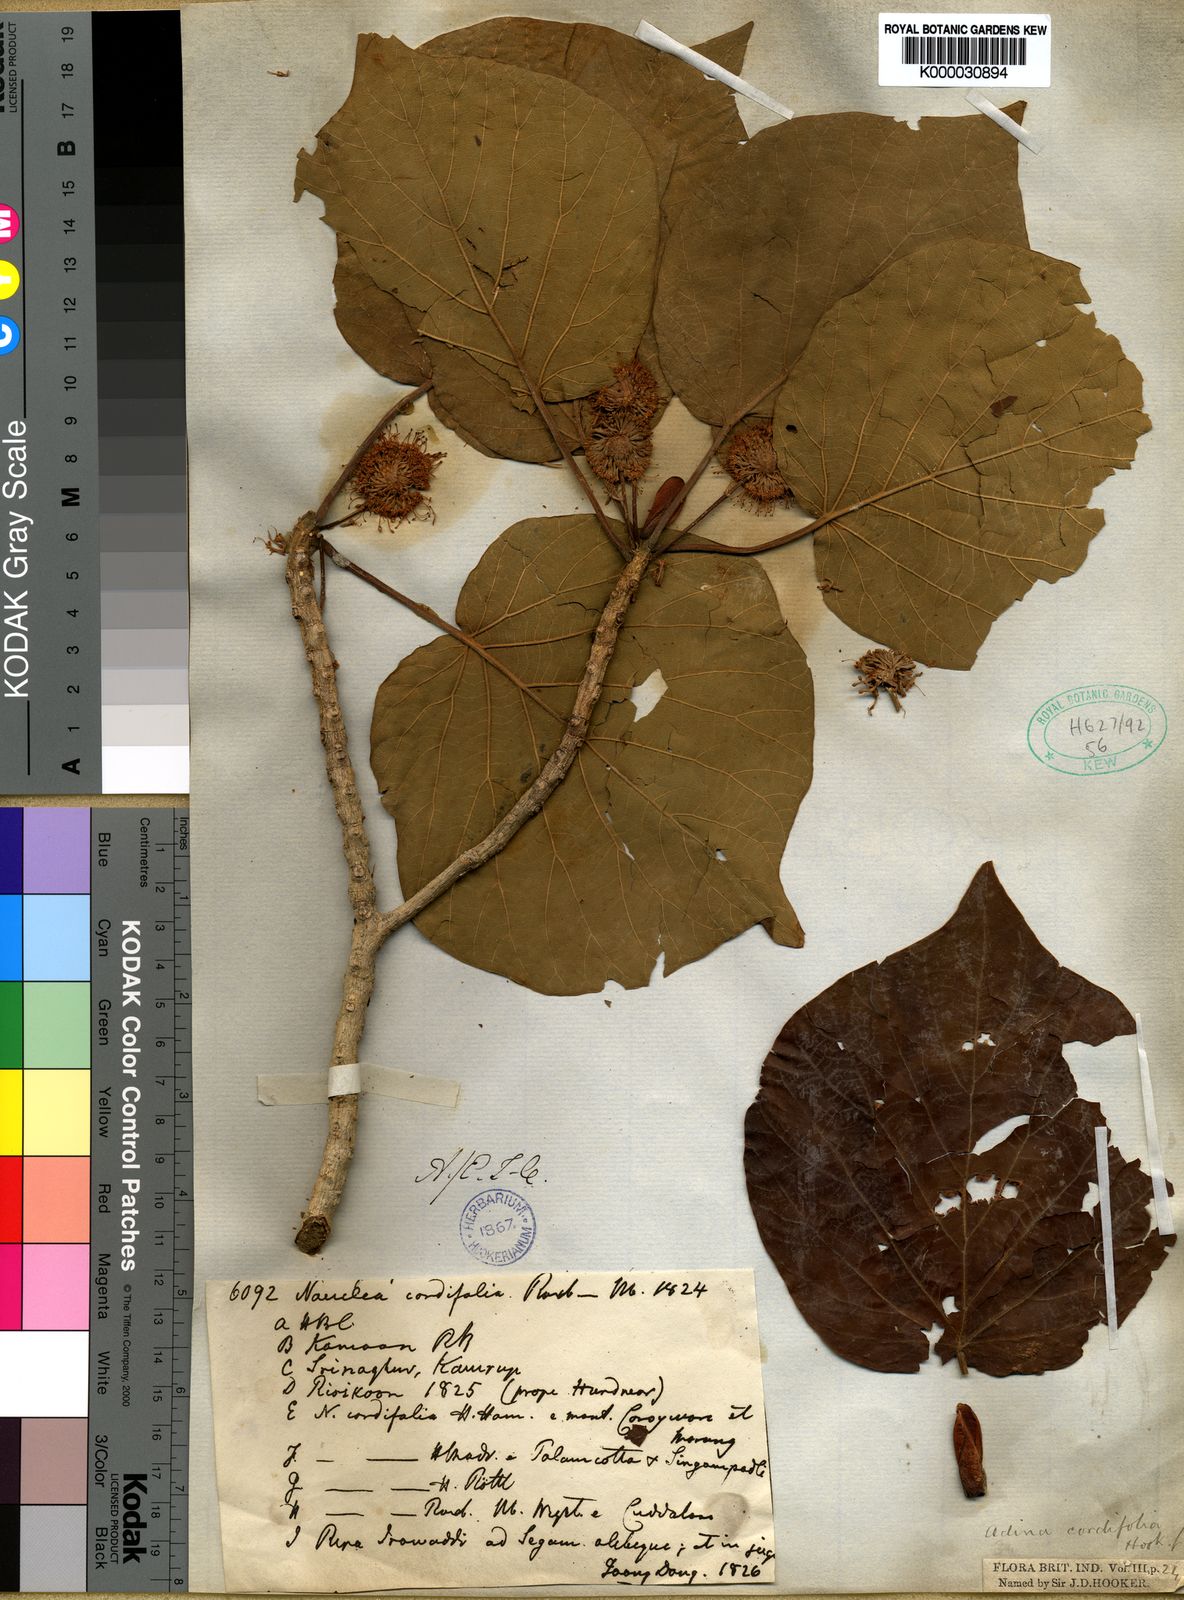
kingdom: Plantae
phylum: Tracheophyta
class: Magnoliopsida
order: Gentianales
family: Rubiaceae
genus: Adina
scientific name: Adina cordifolia
